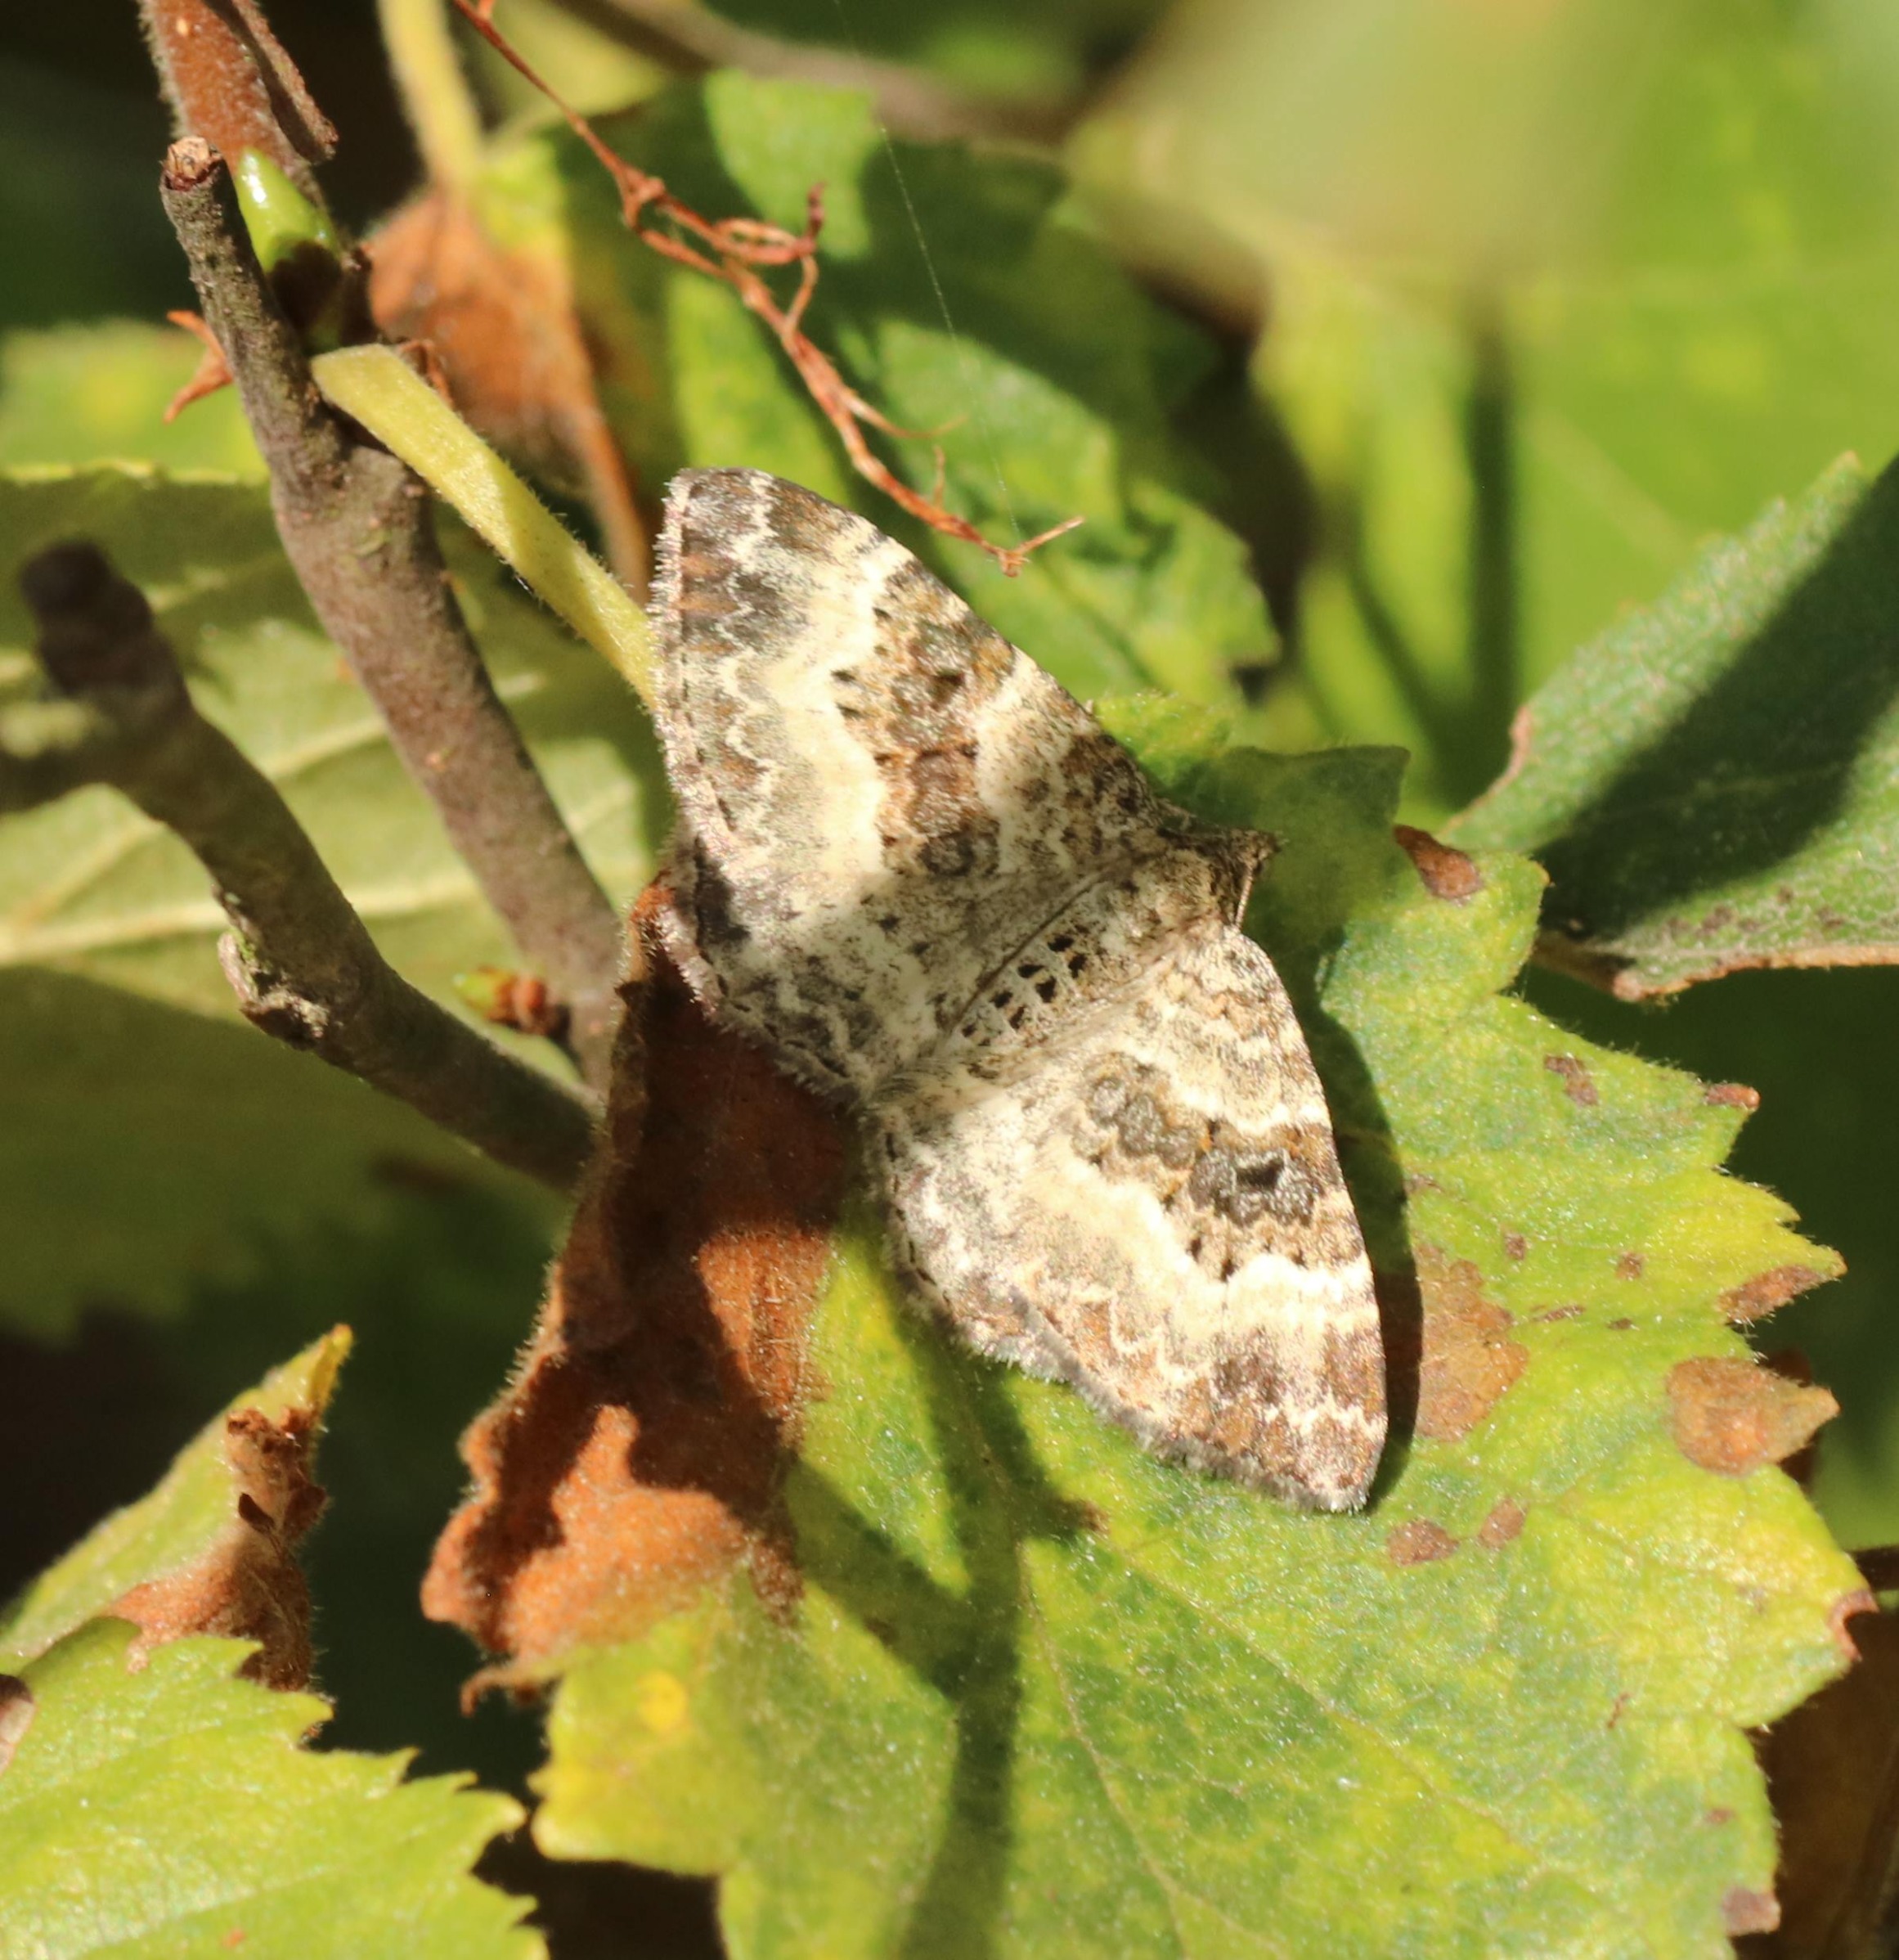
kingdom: Animalia
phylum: Arthropoda
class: Insecta
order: Lepidoptera
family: Geometridae
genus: Epirrhoe
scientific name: Epirrhoe alternata
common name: Almindelig bladmåler
